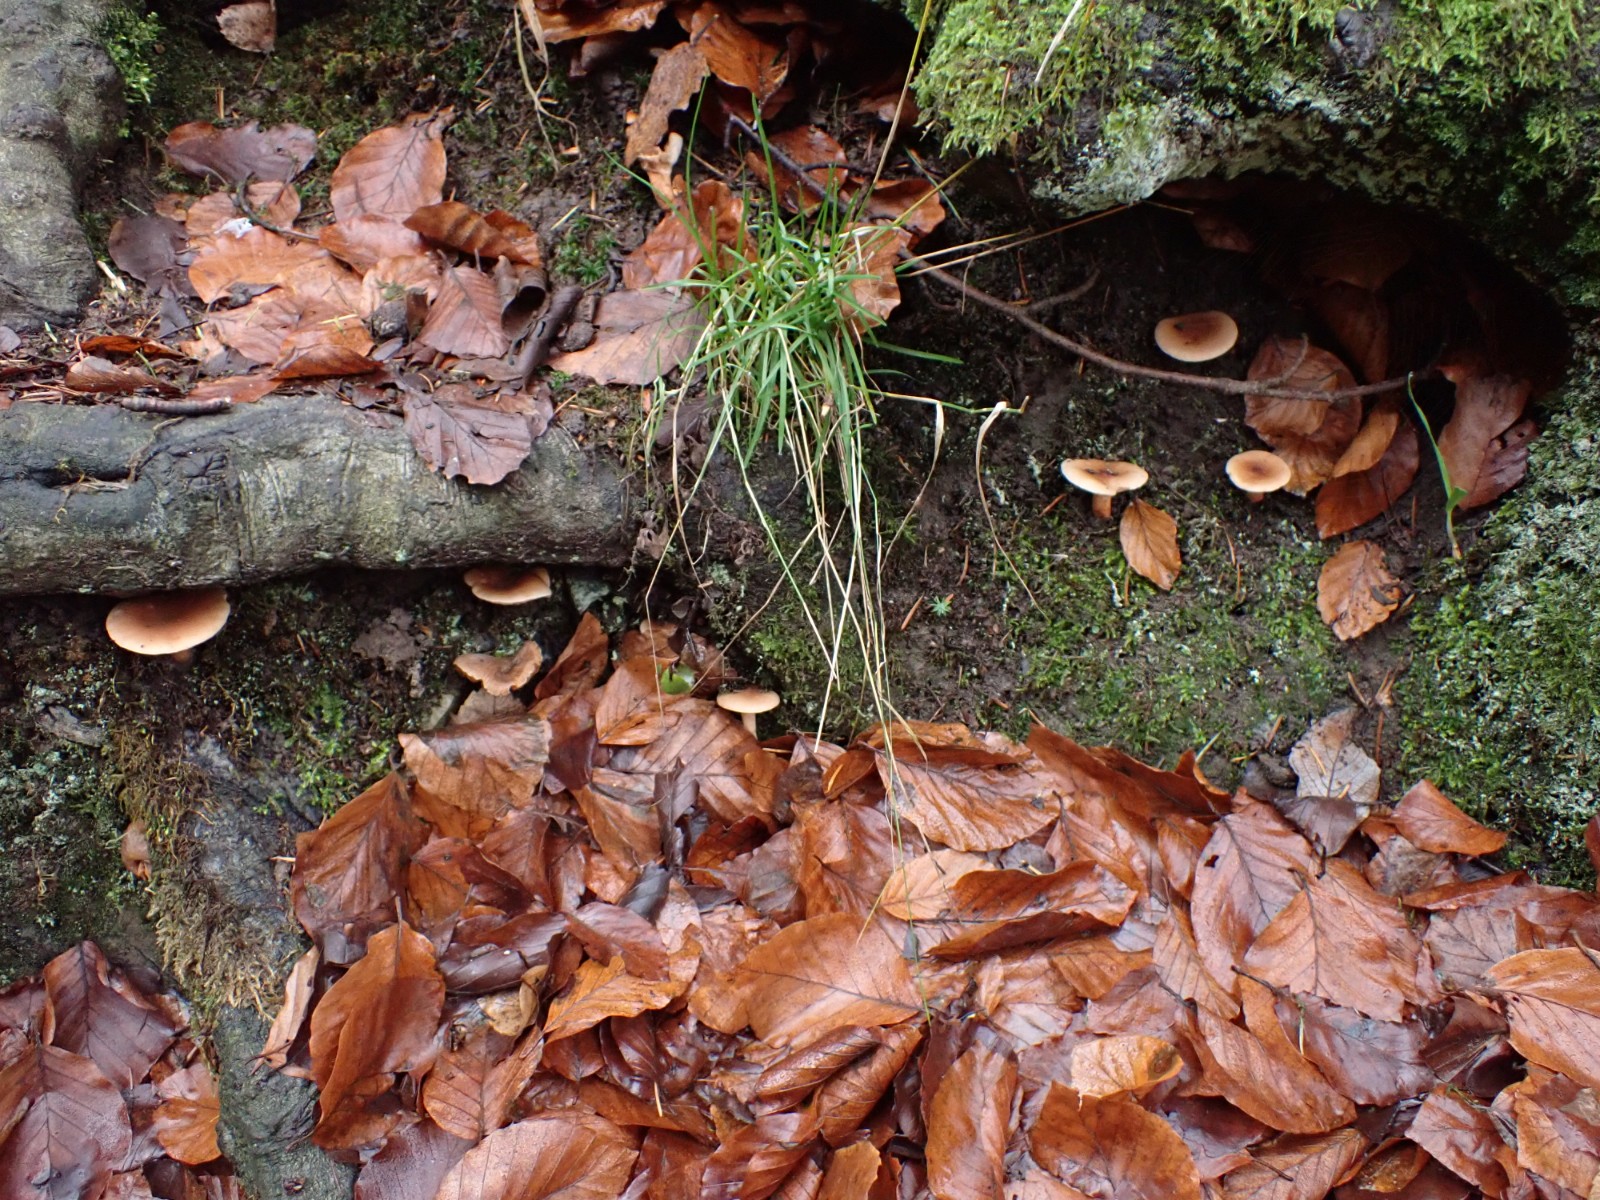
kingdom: Fungi
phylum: Basidiomycota
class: Agaricomycetes
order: Russulales
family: Russulaceae
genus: Lactarius
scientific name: Lactarius subdulcis
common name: sødlig mælkehat
